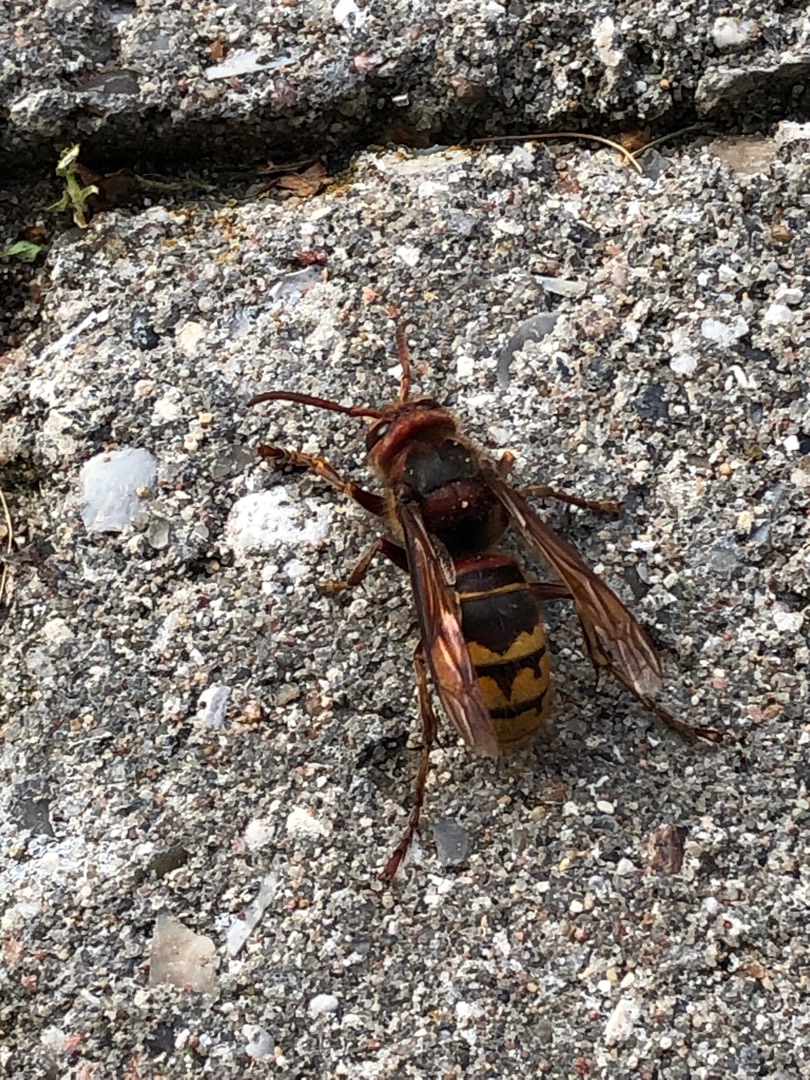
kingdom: Animalia
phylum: Arthropoda
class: Insecta
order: Hymenoptera
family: Vespidae
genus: Vespa
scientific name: Vespa crabro
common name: Stor gedehams
